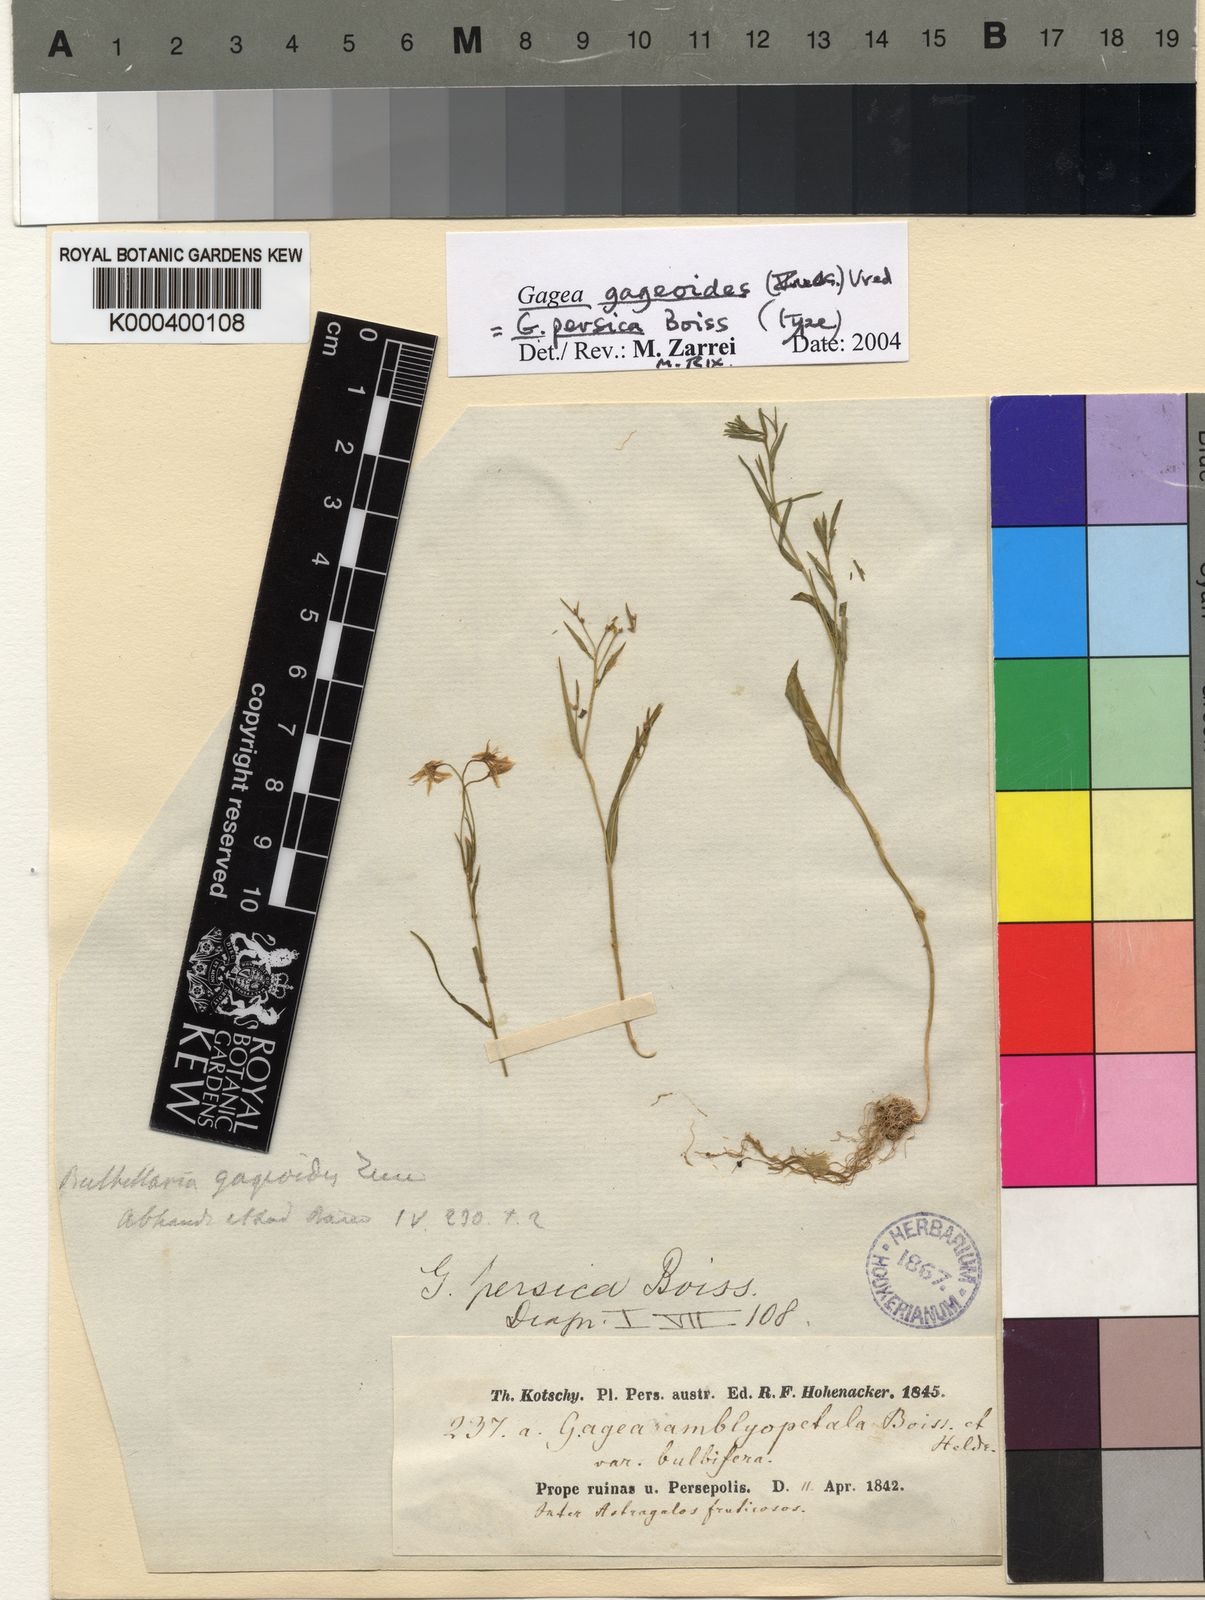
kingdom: Plantae
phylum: Tracheophyta
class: Liliopsida
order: Liliales
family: Liliaceae
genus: Gagea
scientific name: Gagea gageoides
